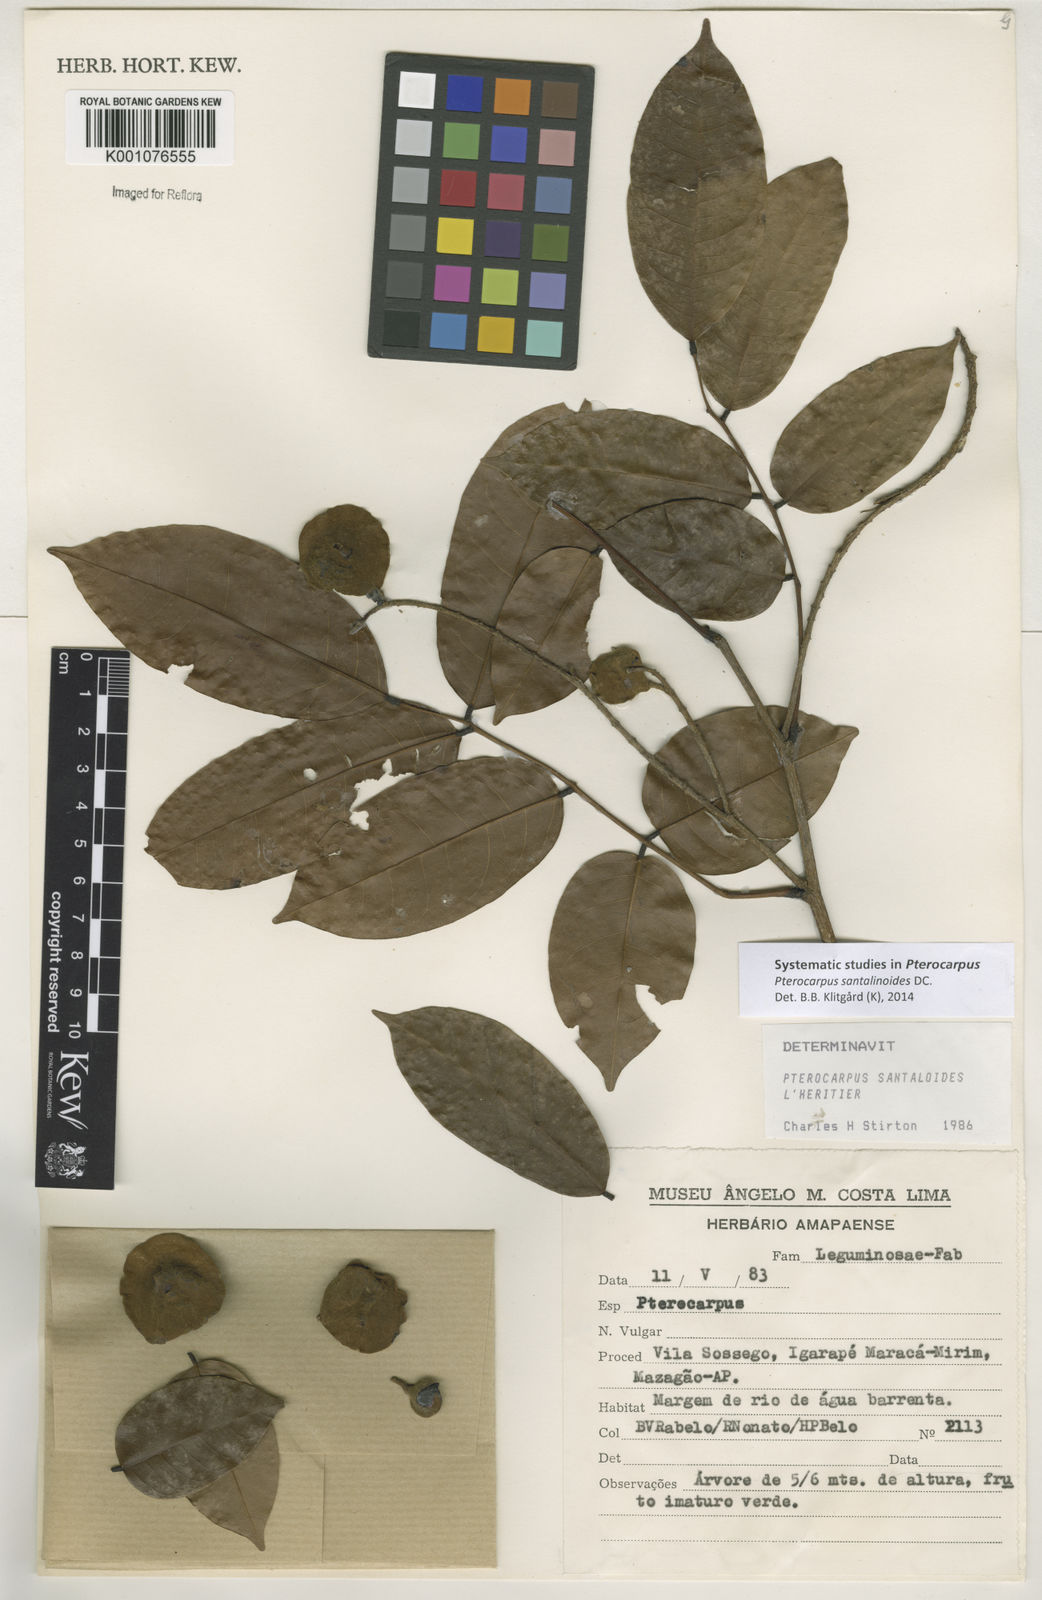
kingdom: Plantae
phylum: Tracheophyta
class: Magnoliopsida
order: Fabales
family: Fabaceae
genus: Pterocarpus
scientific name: Pterocarpus santalinoides
